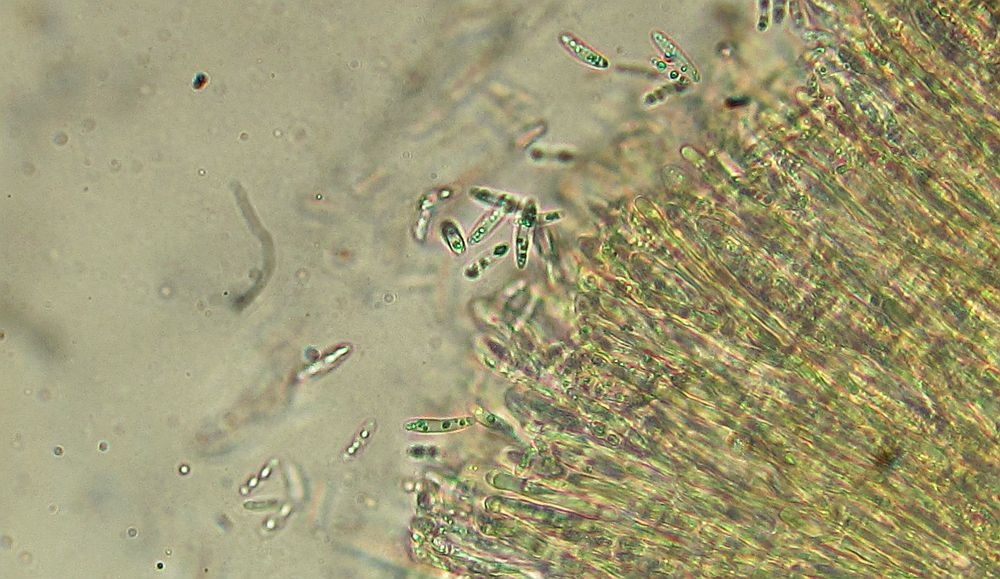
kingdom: Fungi
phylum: Ascomycota
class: Leotiomycetes
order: Helotiales
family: Mollisiaceae
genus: Mollisia
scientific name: Mollisia ventosa
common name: grågul gråskive
